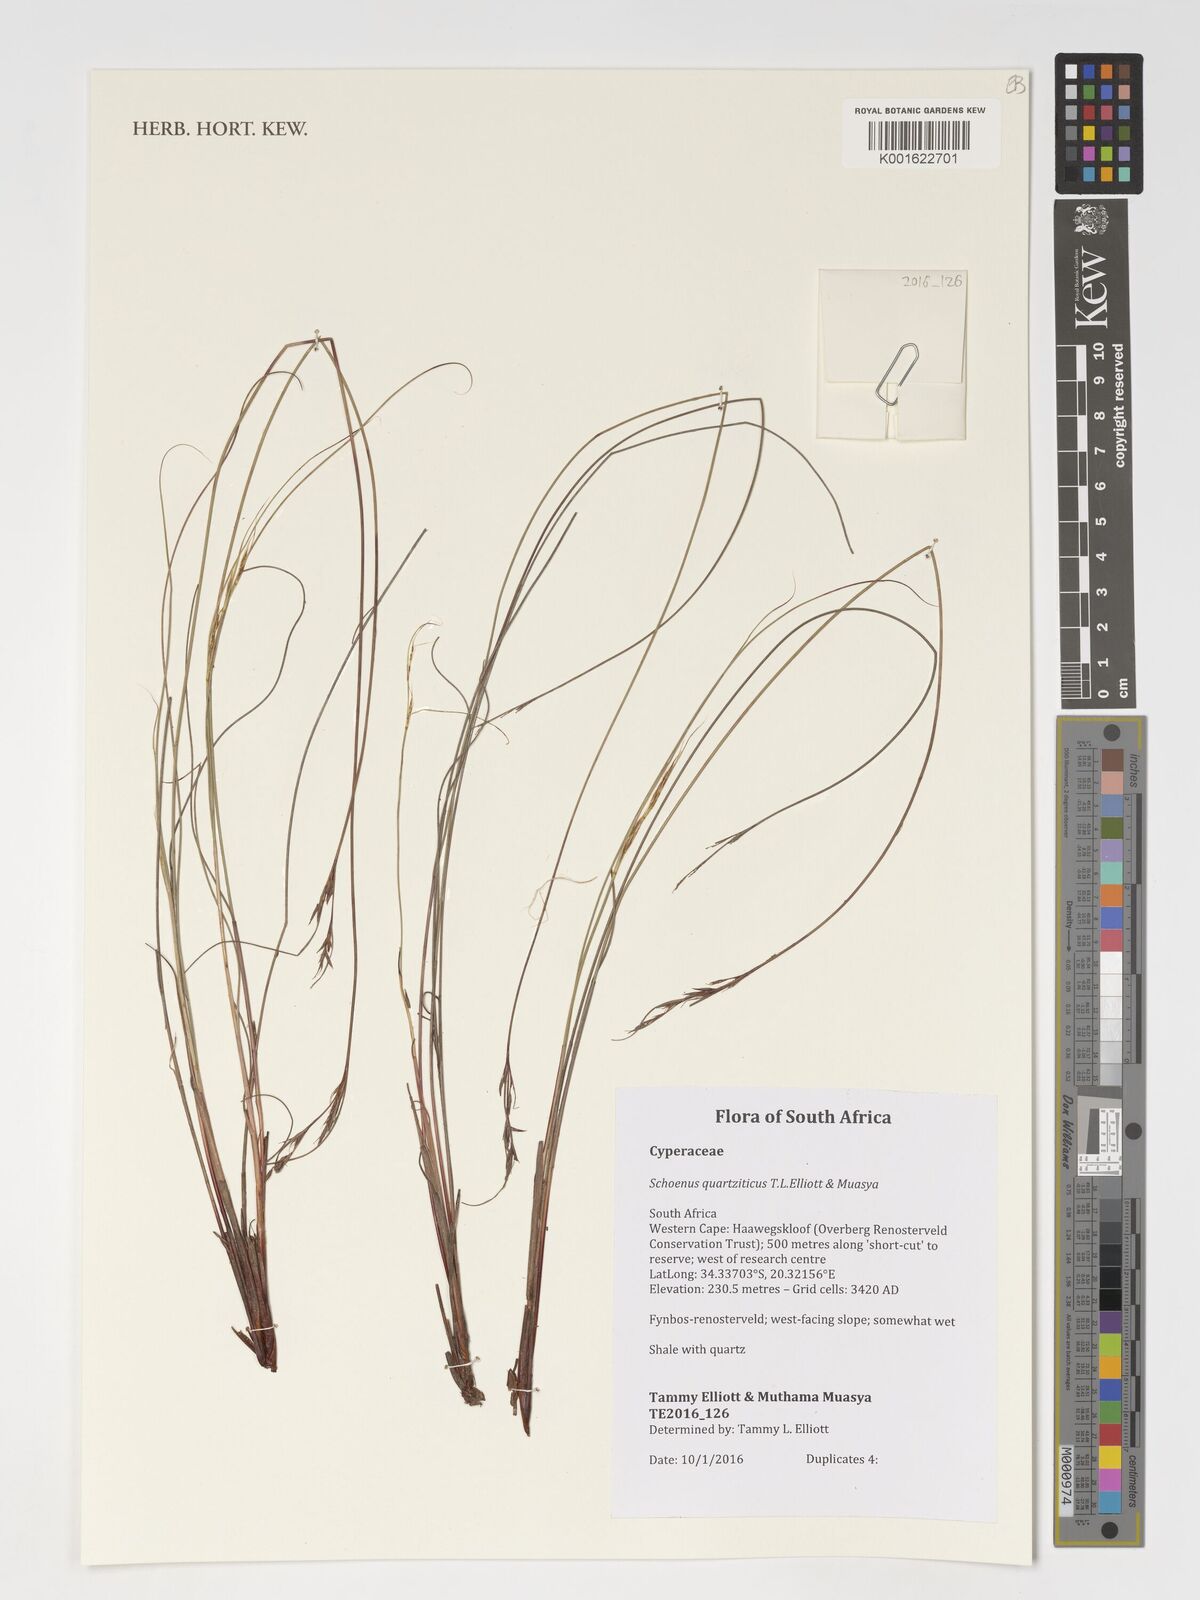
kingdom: Plantae
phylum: Tracheophyta
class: Liliopsida
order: Poales
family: Cyperaceae
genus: Schoenus
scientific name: Schoenus quartziticus
